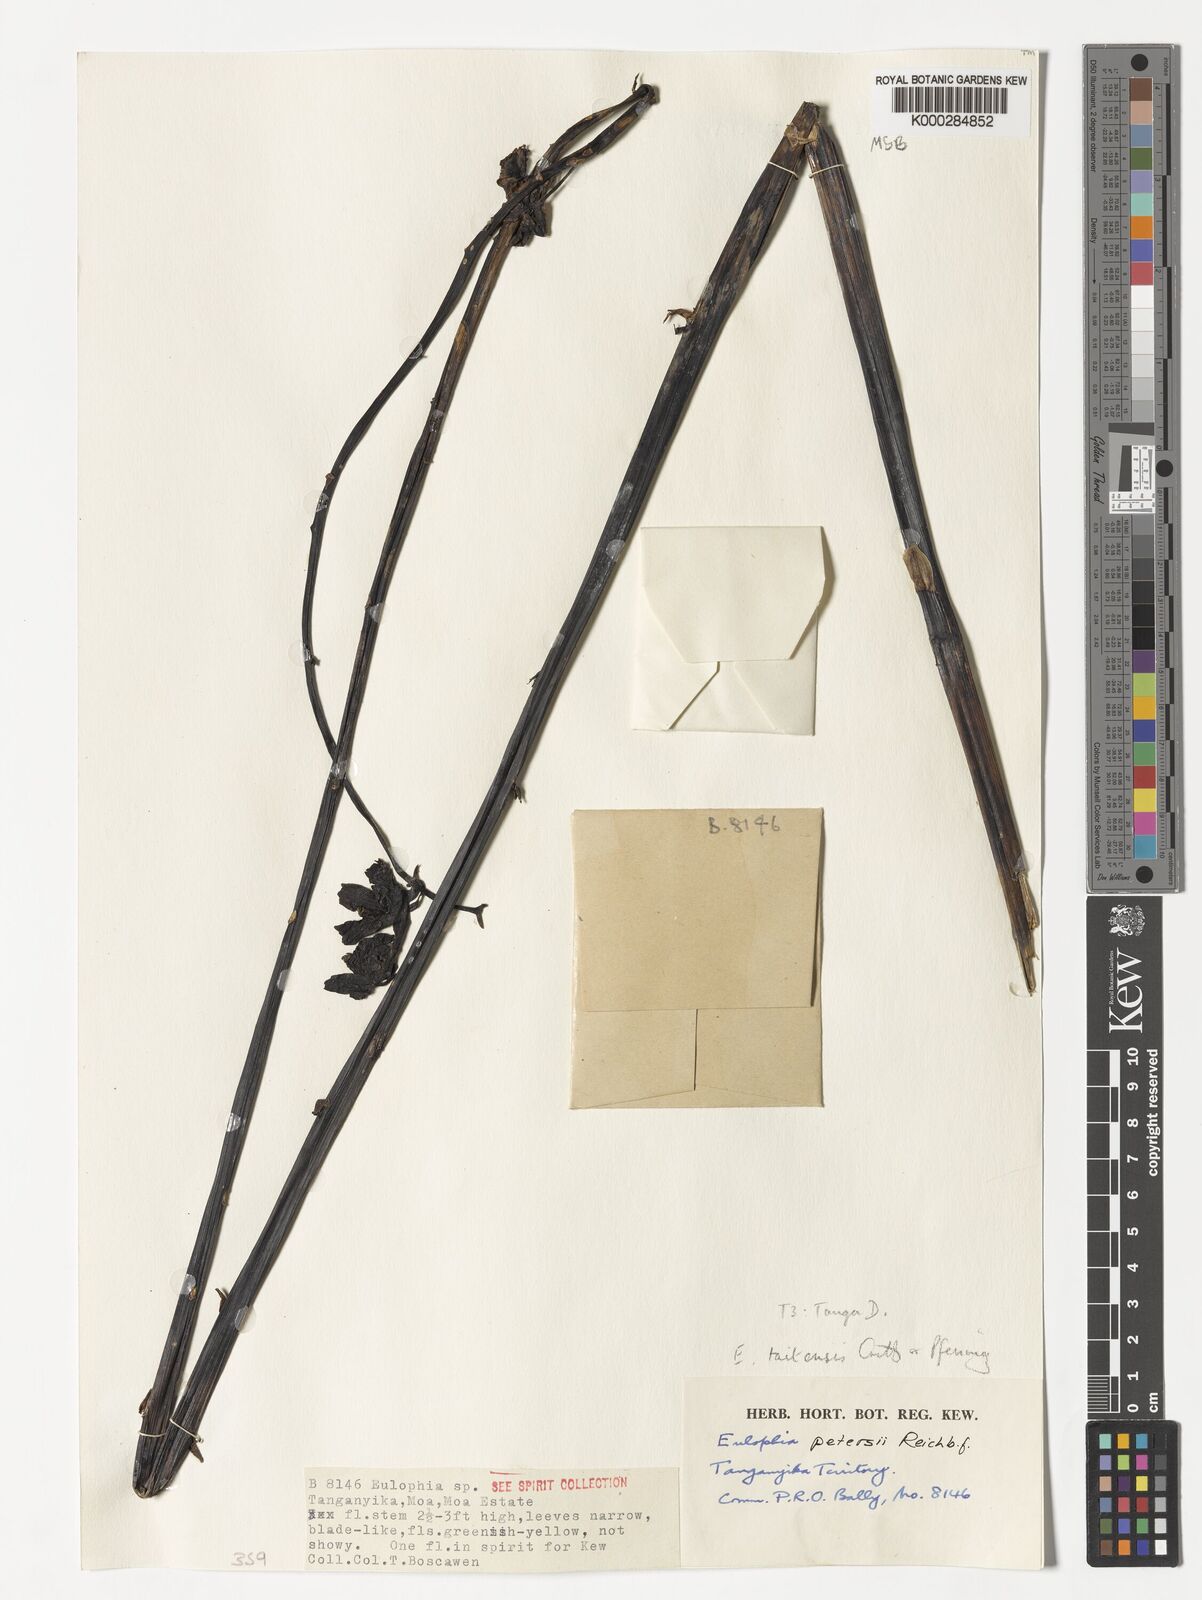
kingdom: Plantae
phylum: Tracheophyta
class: Liliopsida
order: Asparagales
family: Orchidaceae
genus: Eulophia
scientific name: Eulophia taitensis
